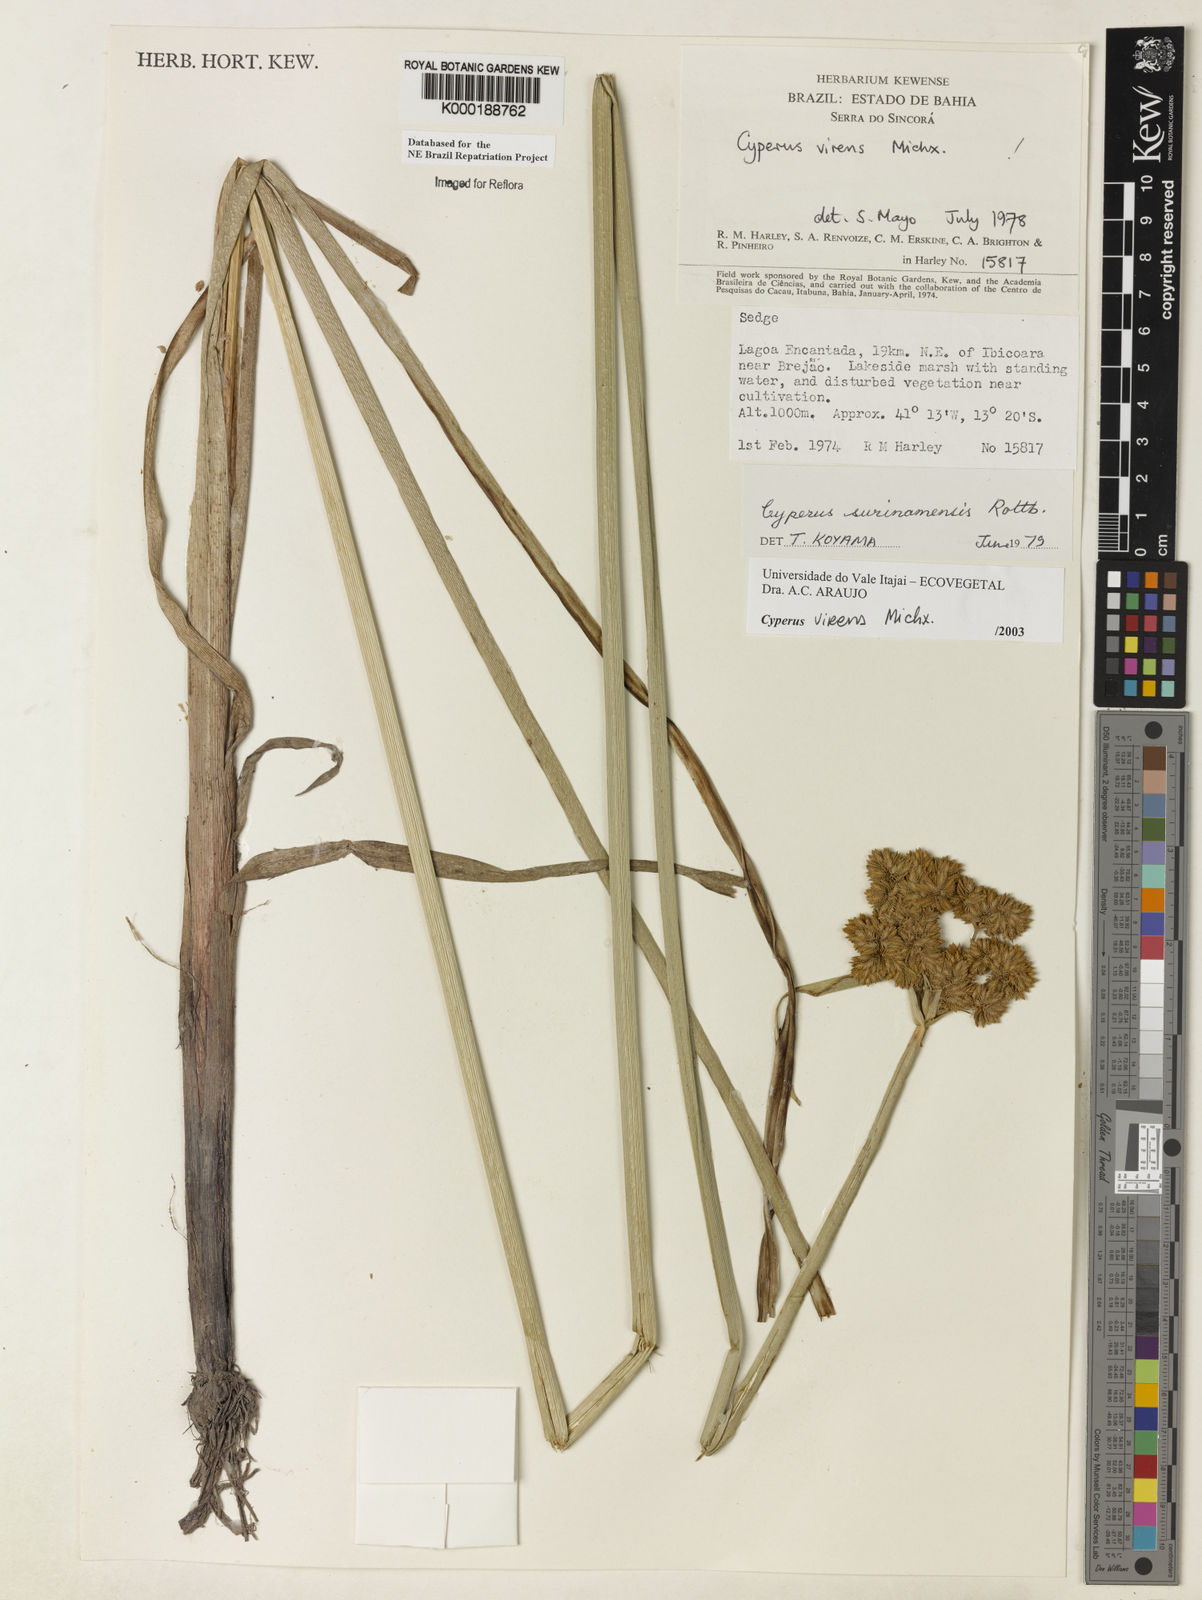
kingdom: Plantae
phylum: Tracheophyta
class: Liliopsida
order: Poales
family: Cyperaceae
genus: Cyperus
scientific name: Cyperus virens
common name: Green flatsedge
